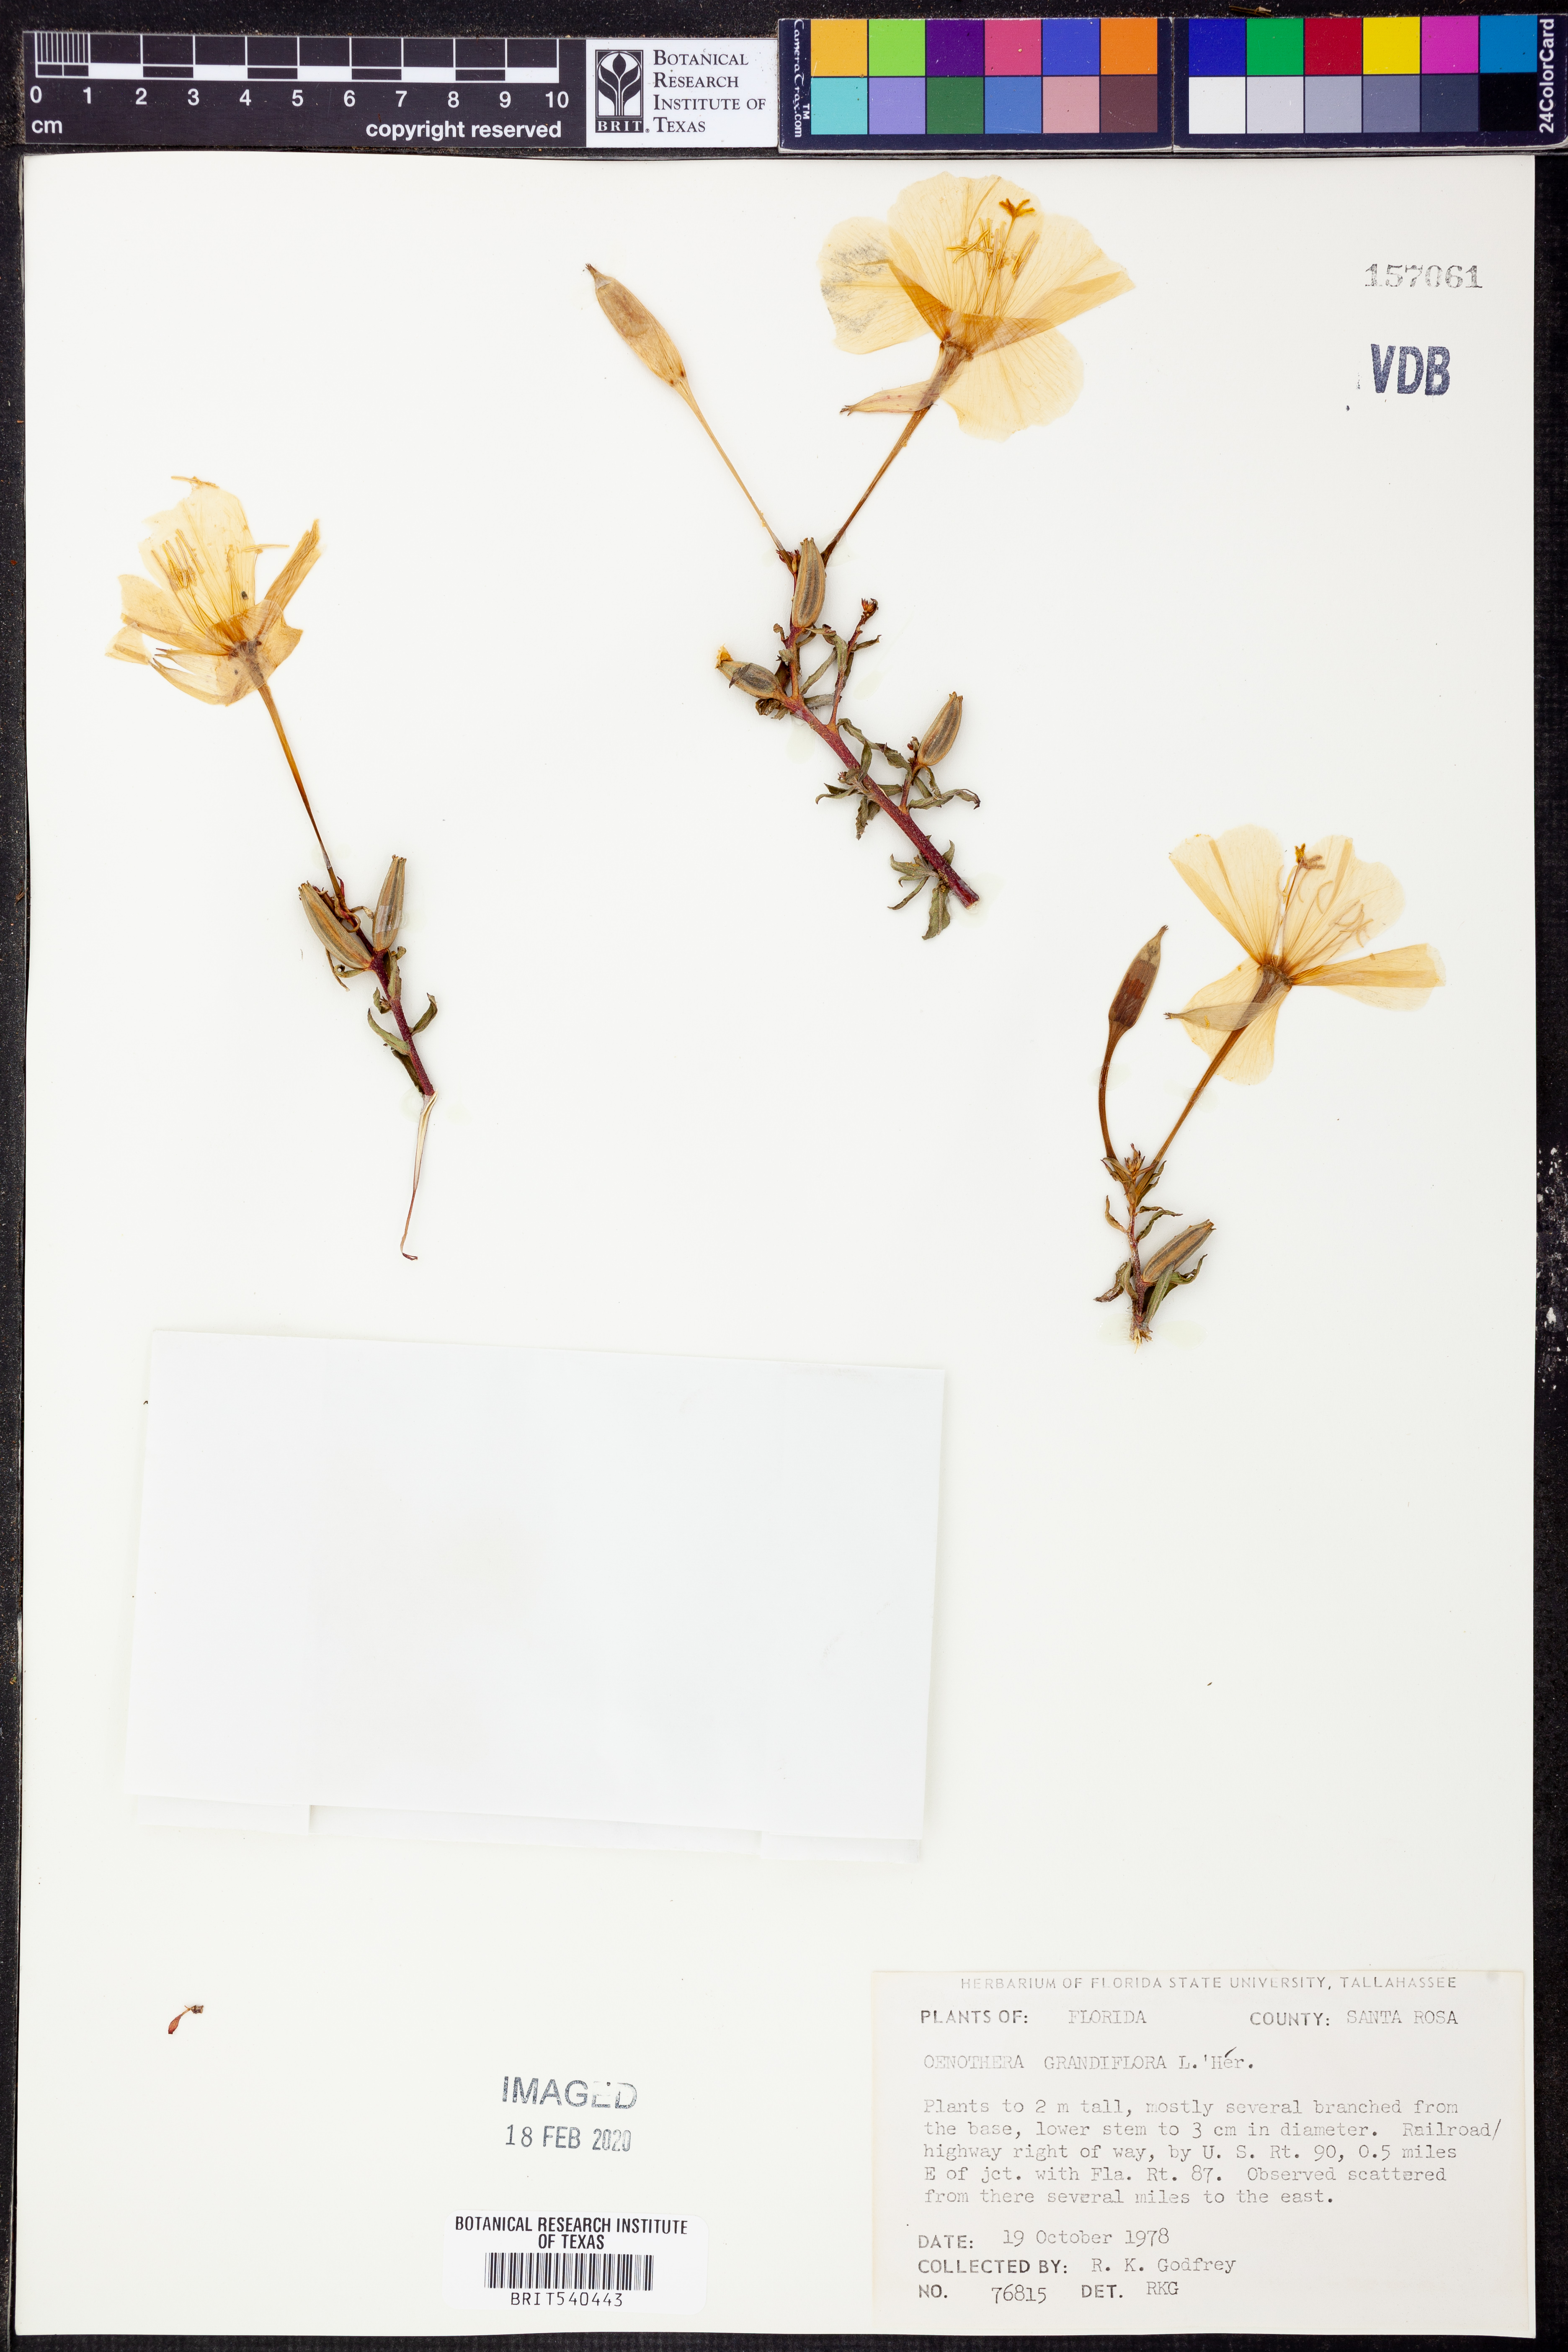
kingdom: Plantae
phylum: Tracheophyta
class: Magnoliopsida
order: Myrtales
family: Onagraceae
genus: Oenothera
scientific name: Oenothera grandiflora
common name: Large-flowered evening-primrose
